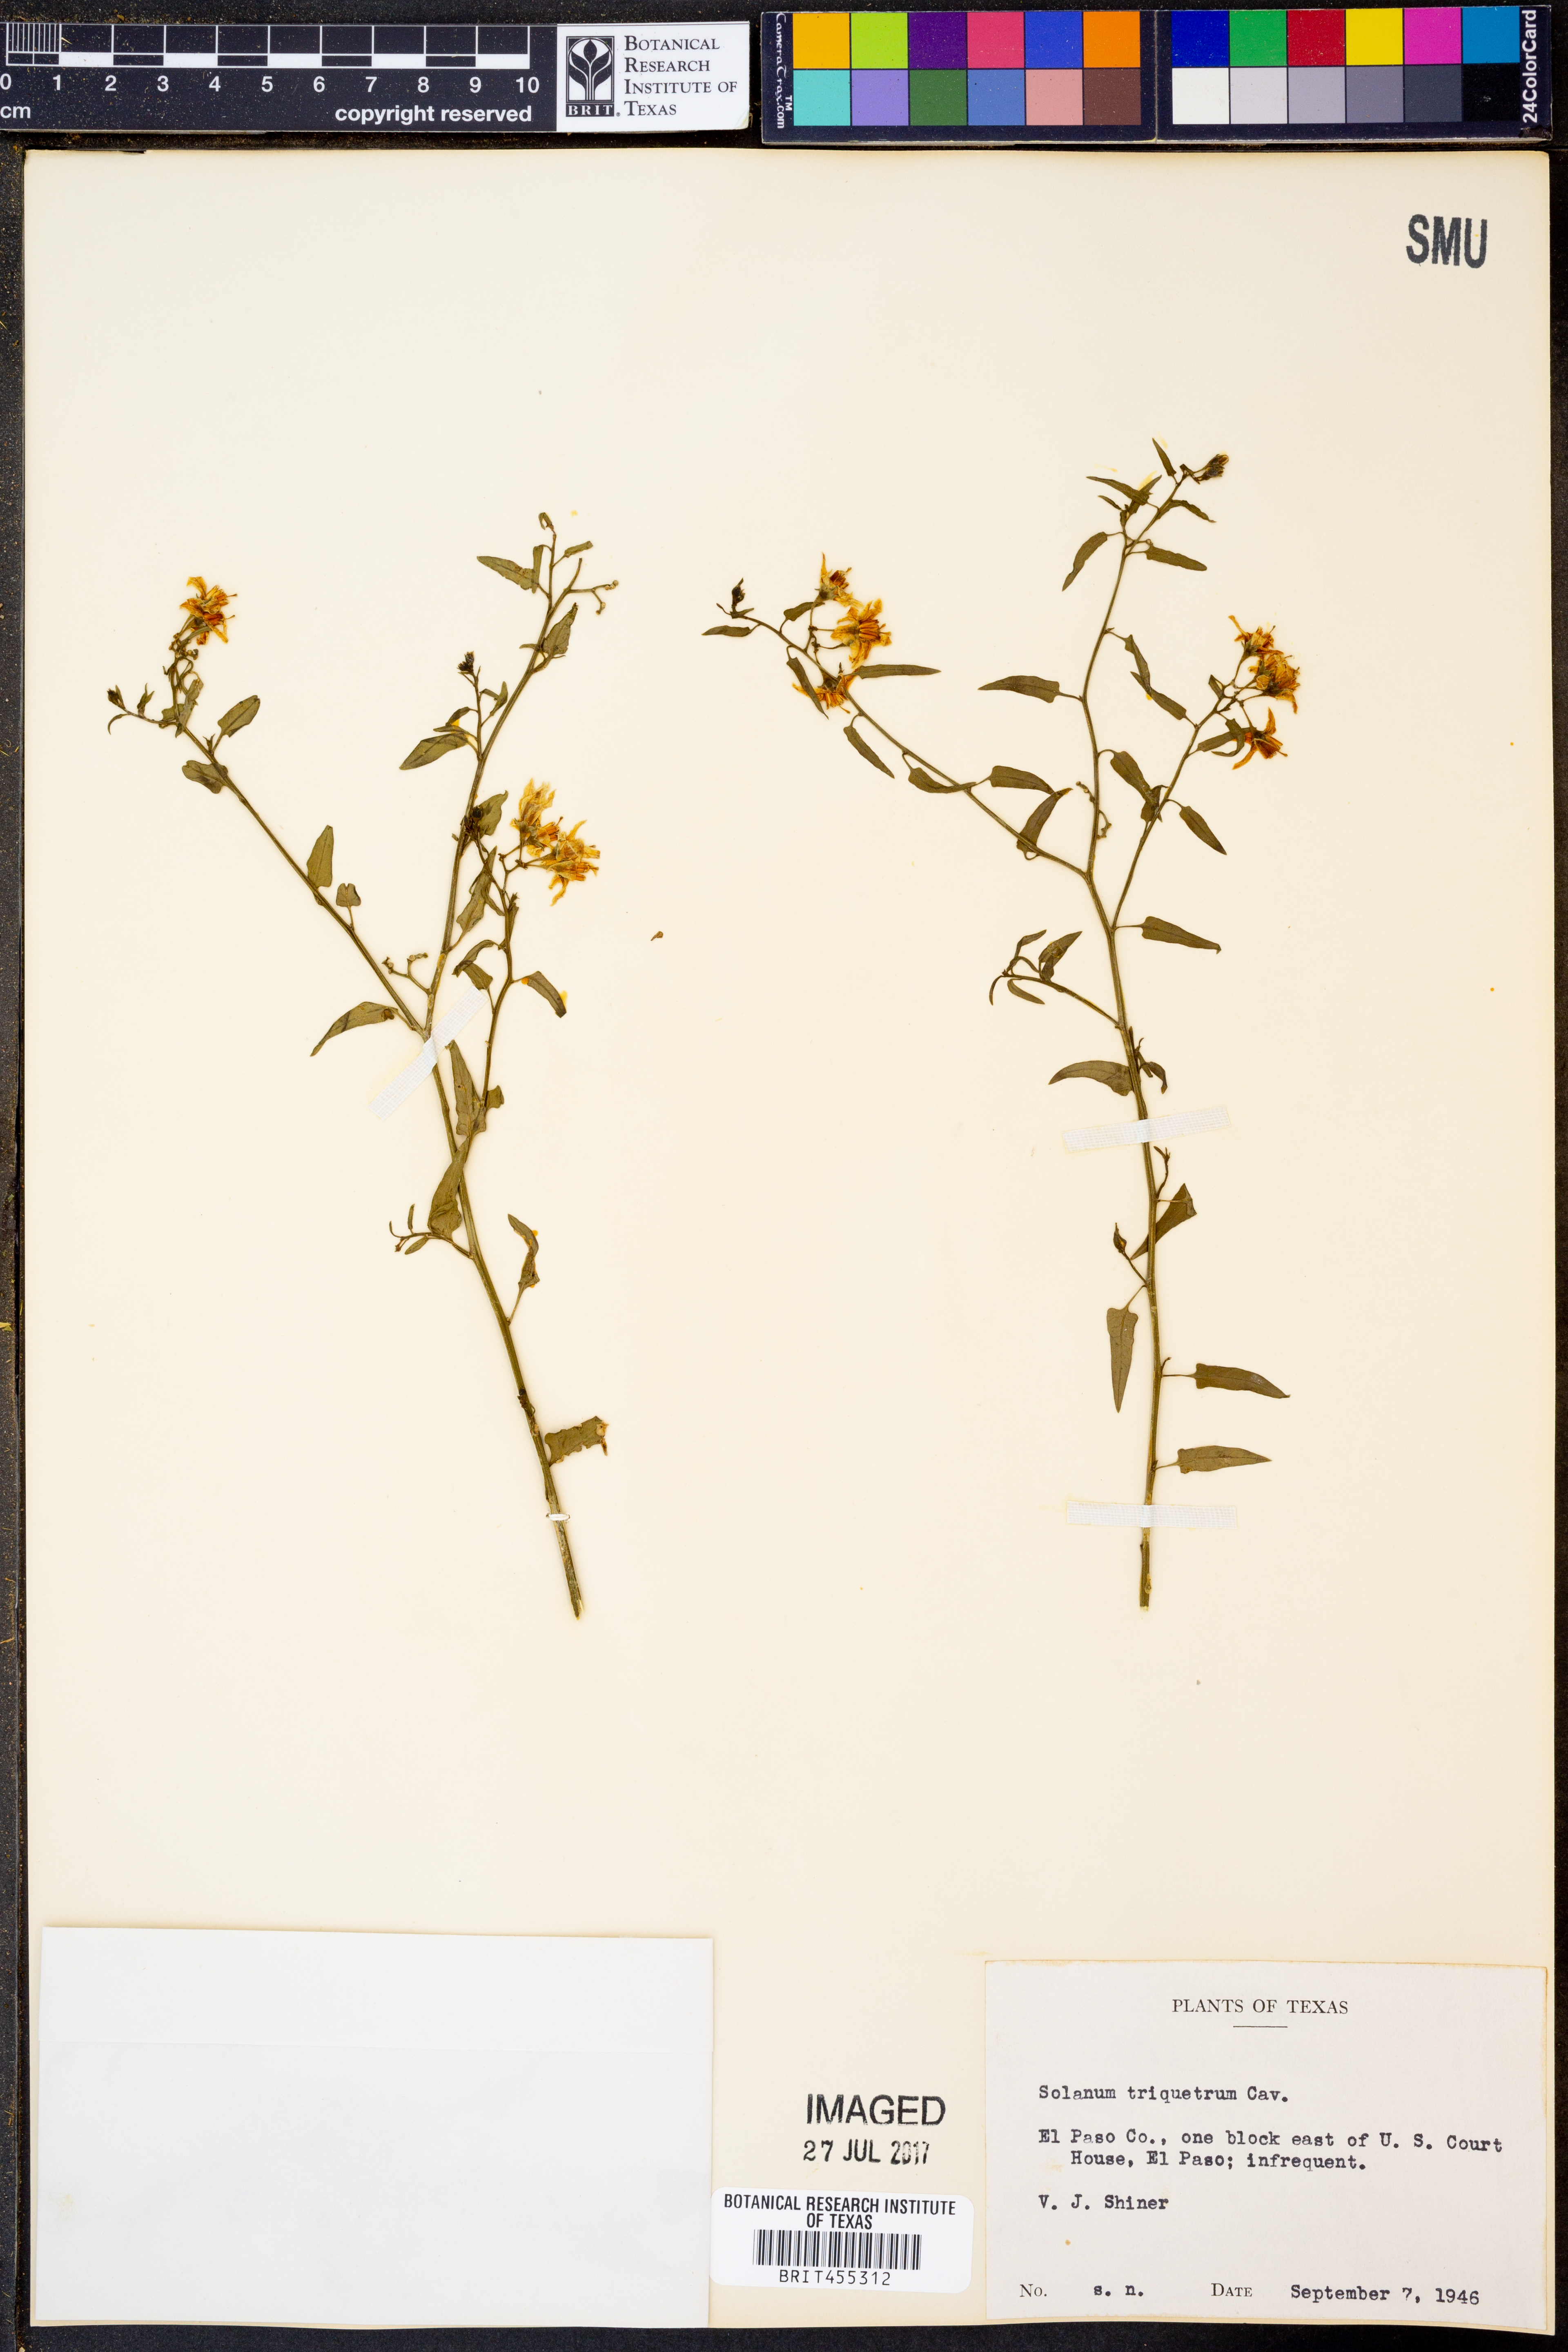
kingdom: Plantae
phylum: Tracheophyta
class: Magnoliopsida
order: Solanales
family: Solanaceae
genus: Solanum
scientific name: Solanum triquetrum
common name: Texas nightshade
